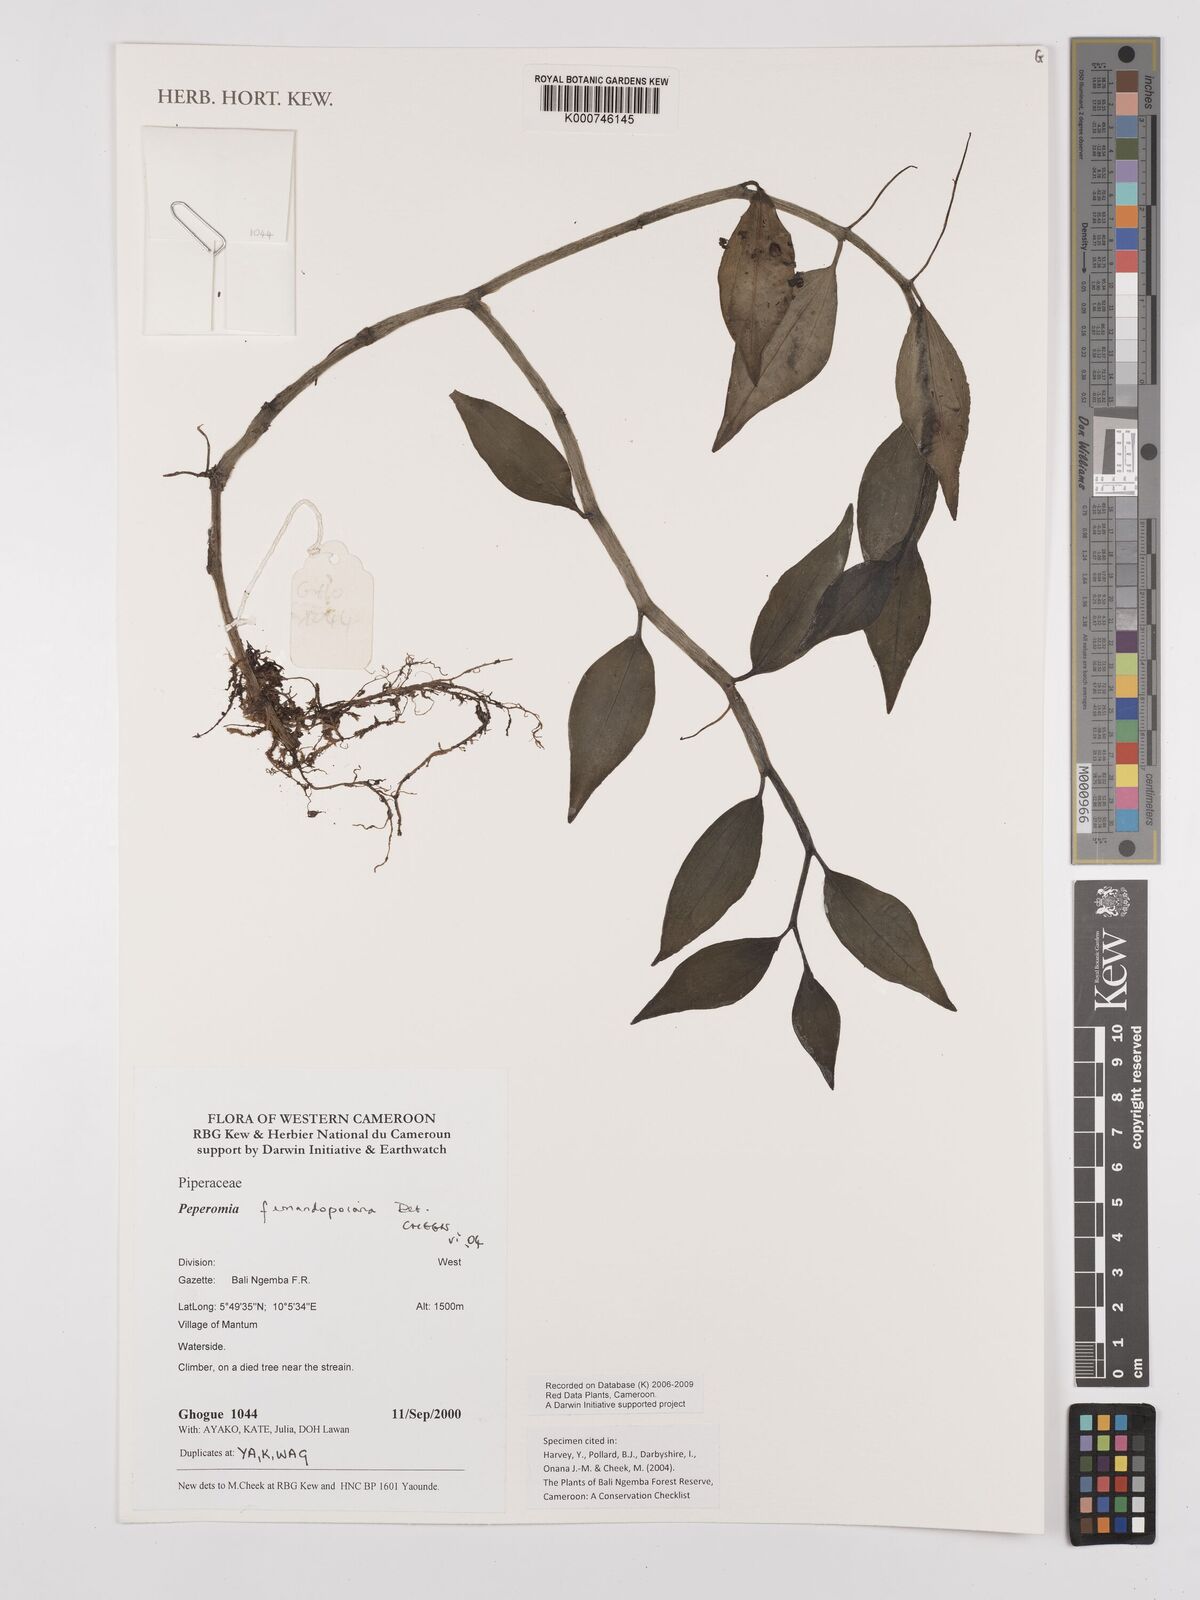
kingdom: Plantae
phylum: Tracheophyta
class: Magnoliopsida
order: Piperales
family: Piperaceae
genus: Peperomia
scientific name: Peperomia fernandopoiana
